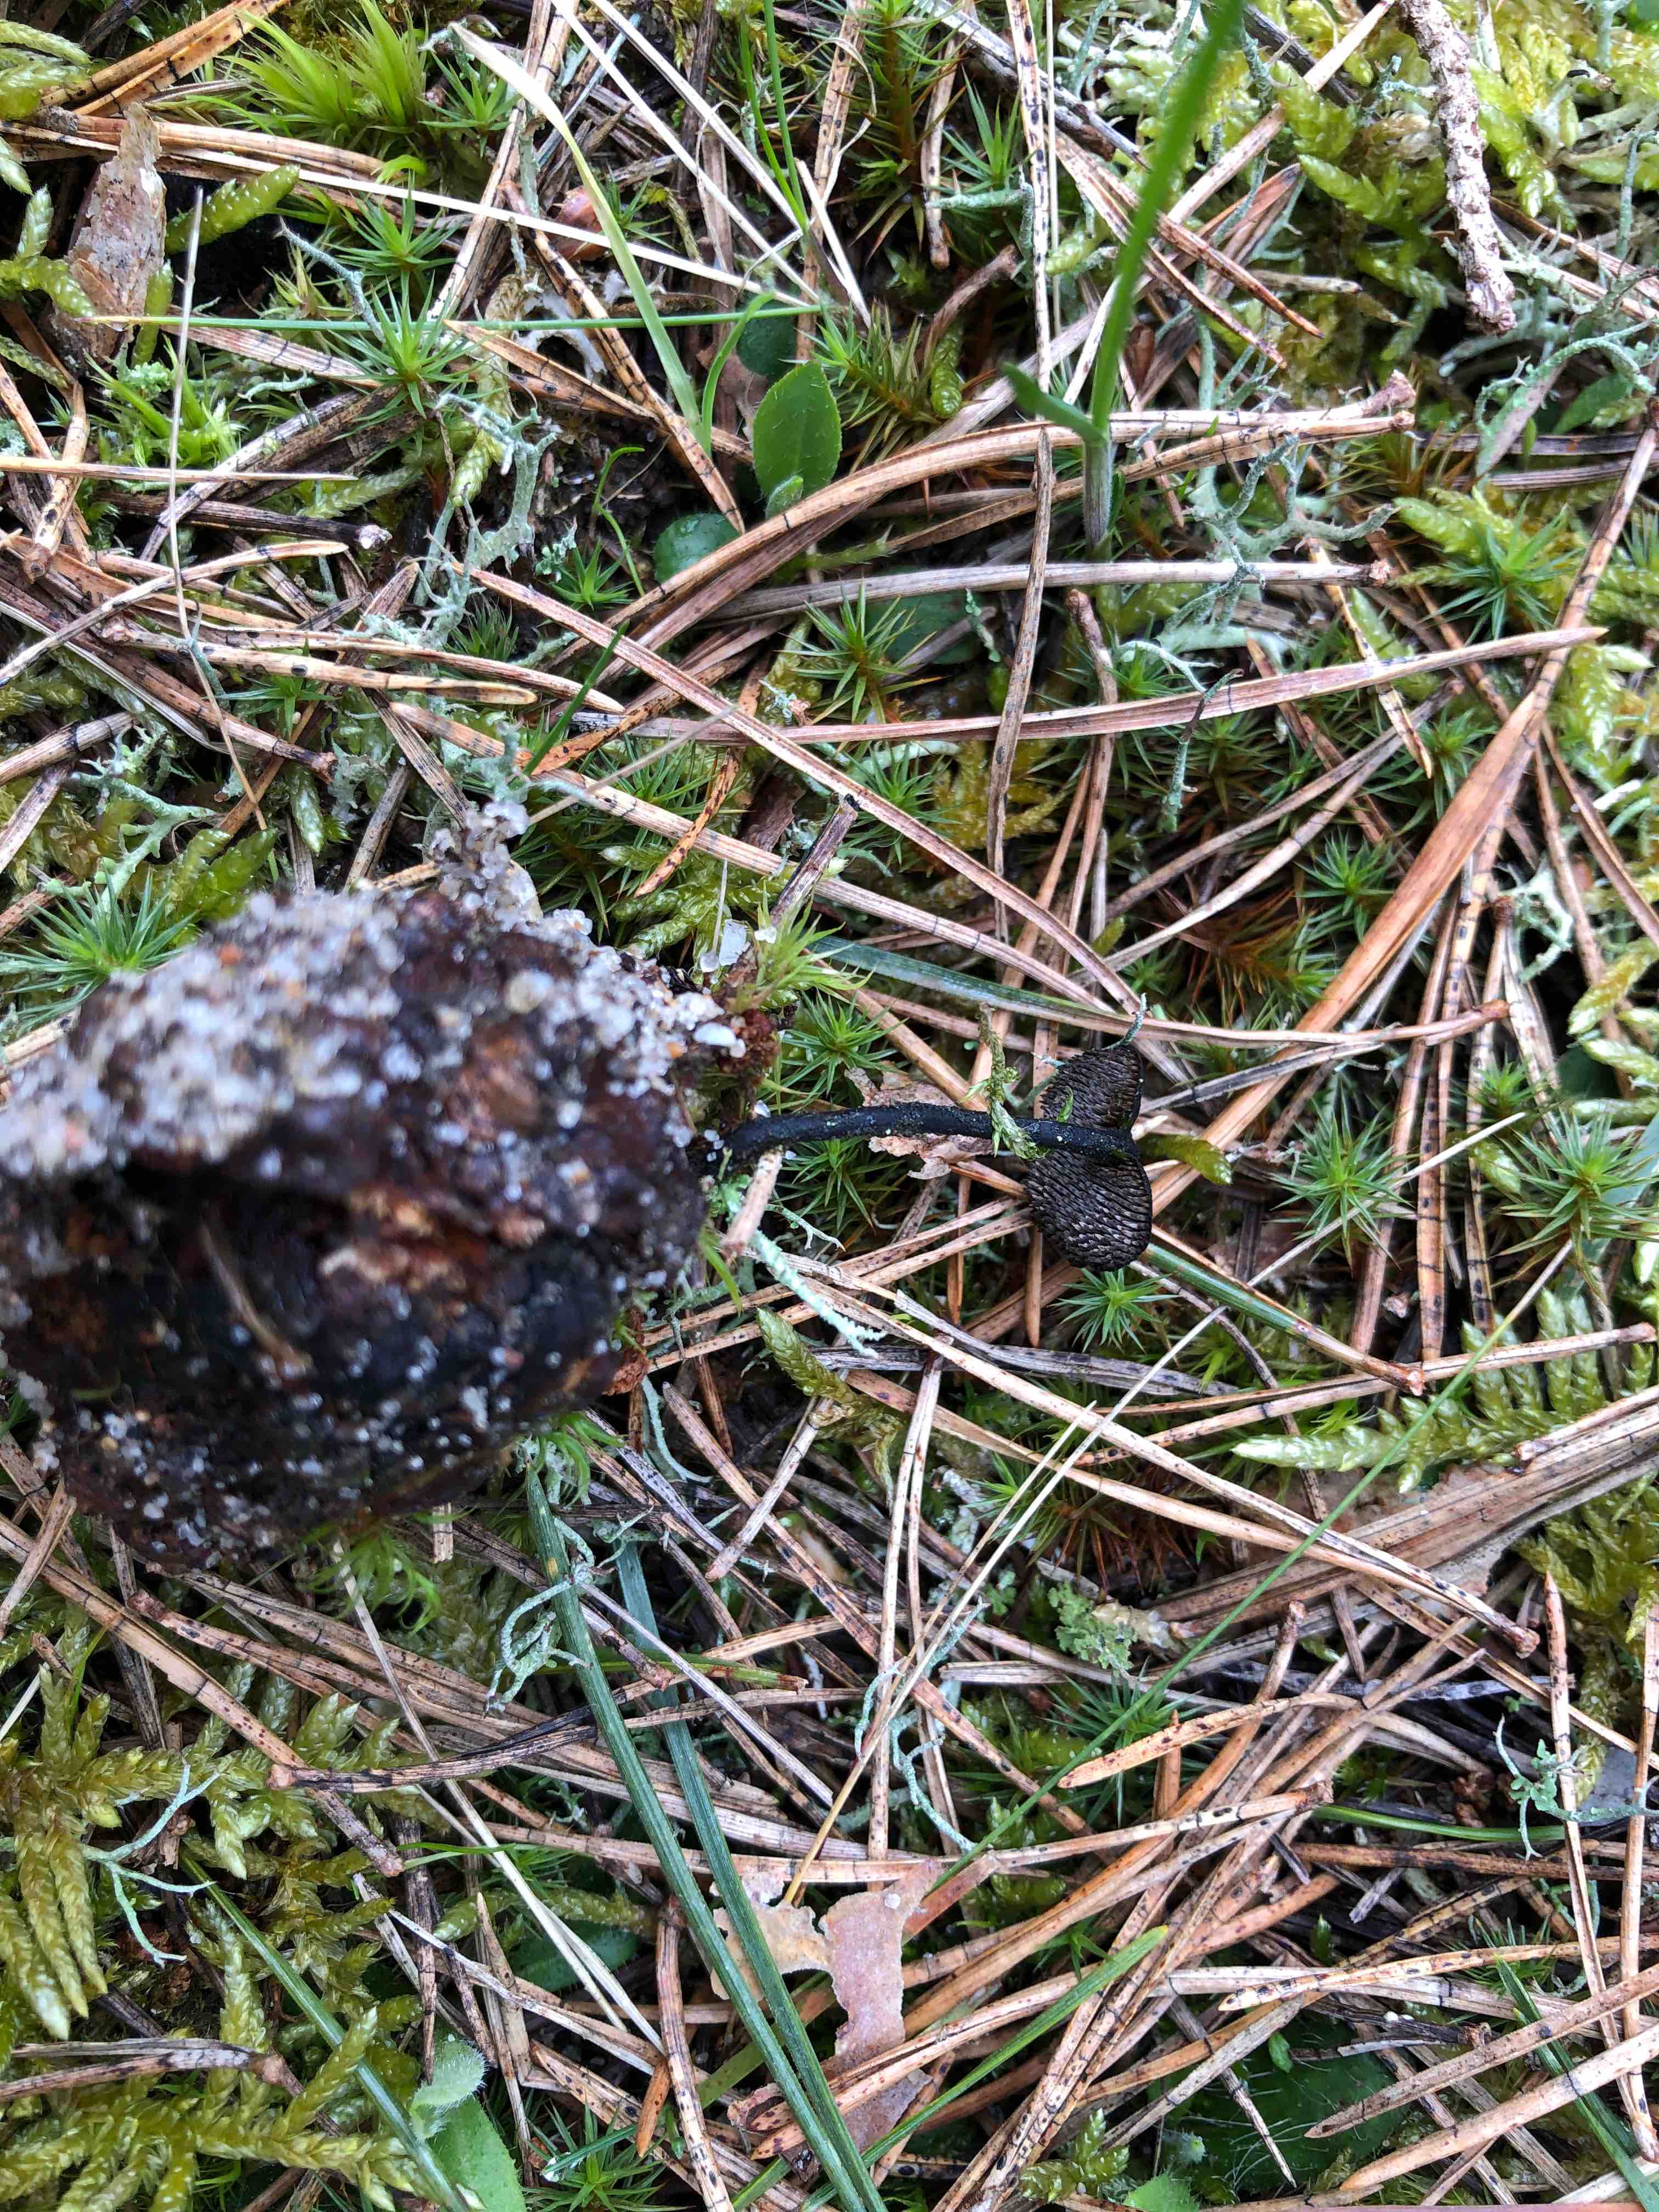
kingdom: Fungi
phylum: Basidiomycota
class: Agaricomycetes
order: Russulales
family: Auriscalpiaceae
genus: Auriscalpium
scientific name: Auriscalpium vulgare
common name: koglepigsvamp
